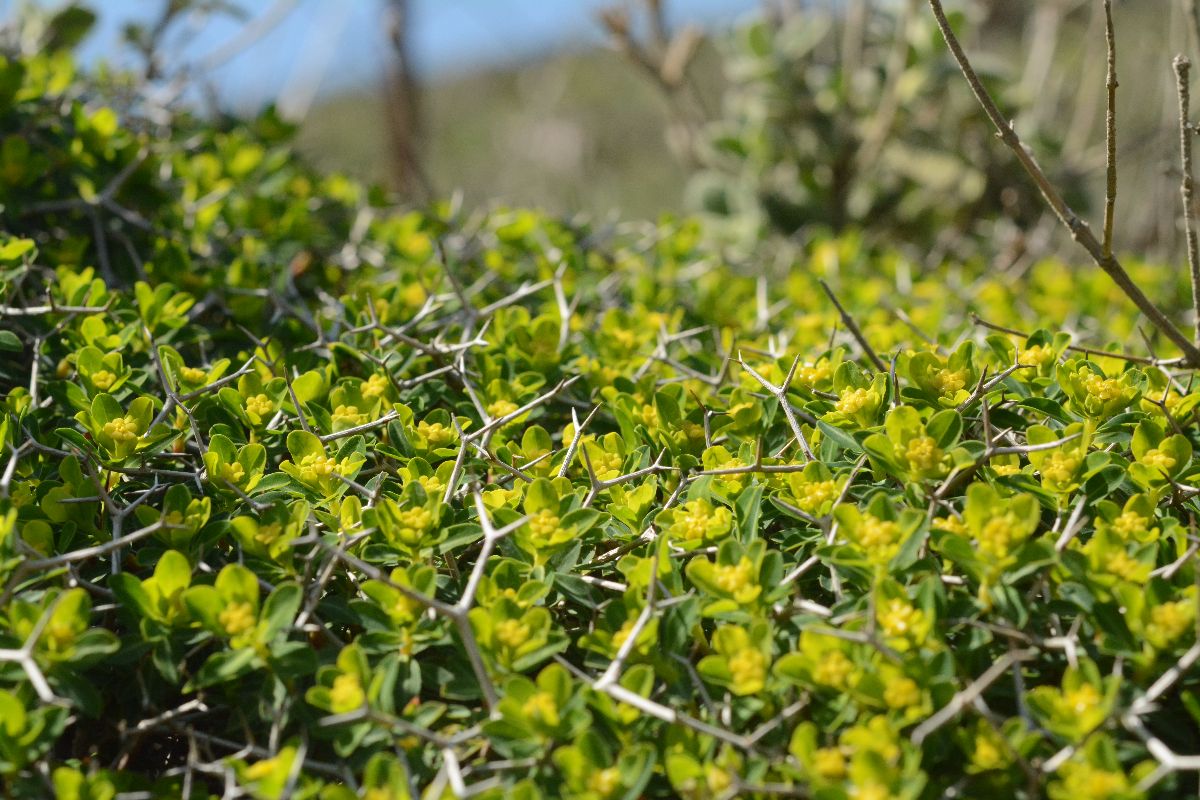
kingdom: Plantae
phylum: Tracheophyta
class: Magnoliopsida
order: Malpighiales
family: Euphorbiaceae
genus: Euphorbia
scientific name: Euphorbia acanthothamnos
